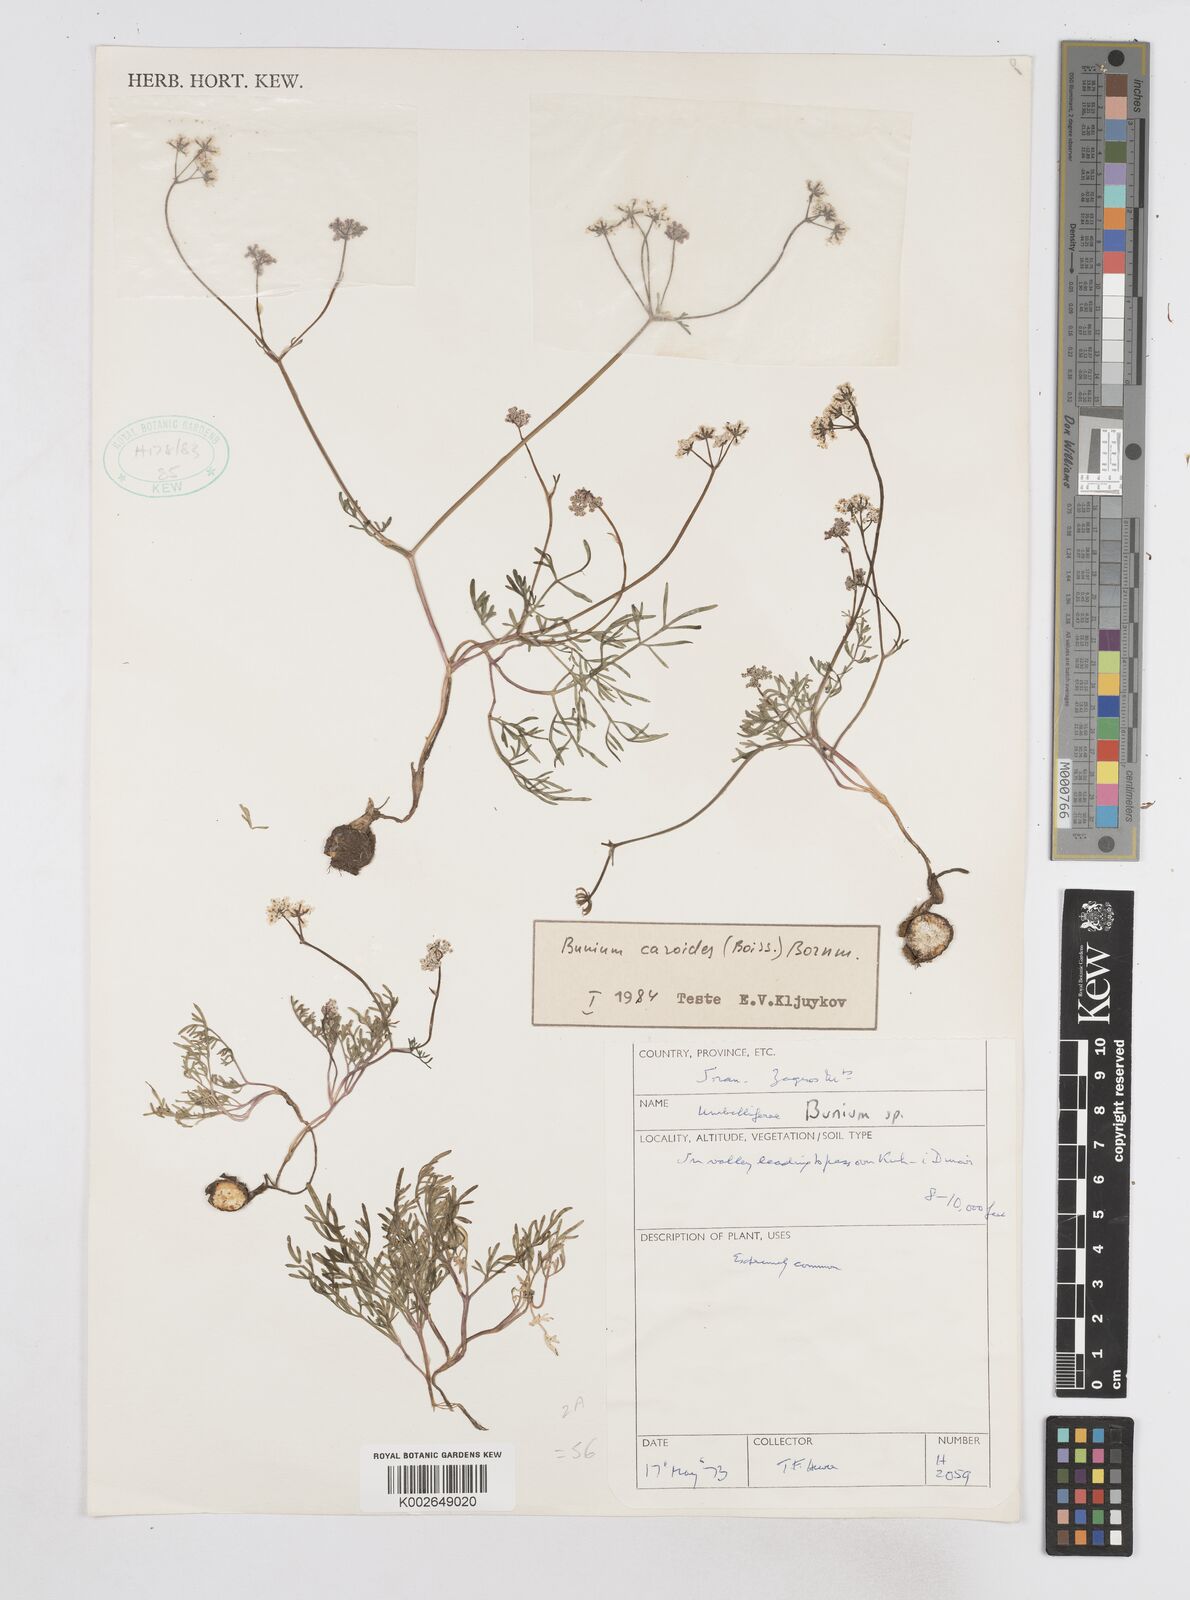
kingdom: Plantae
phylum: Tracheophyta
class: Magnoliopsida
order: Apiales
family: Apiaceae
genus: Elwendia
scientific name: Elwendia caroides
